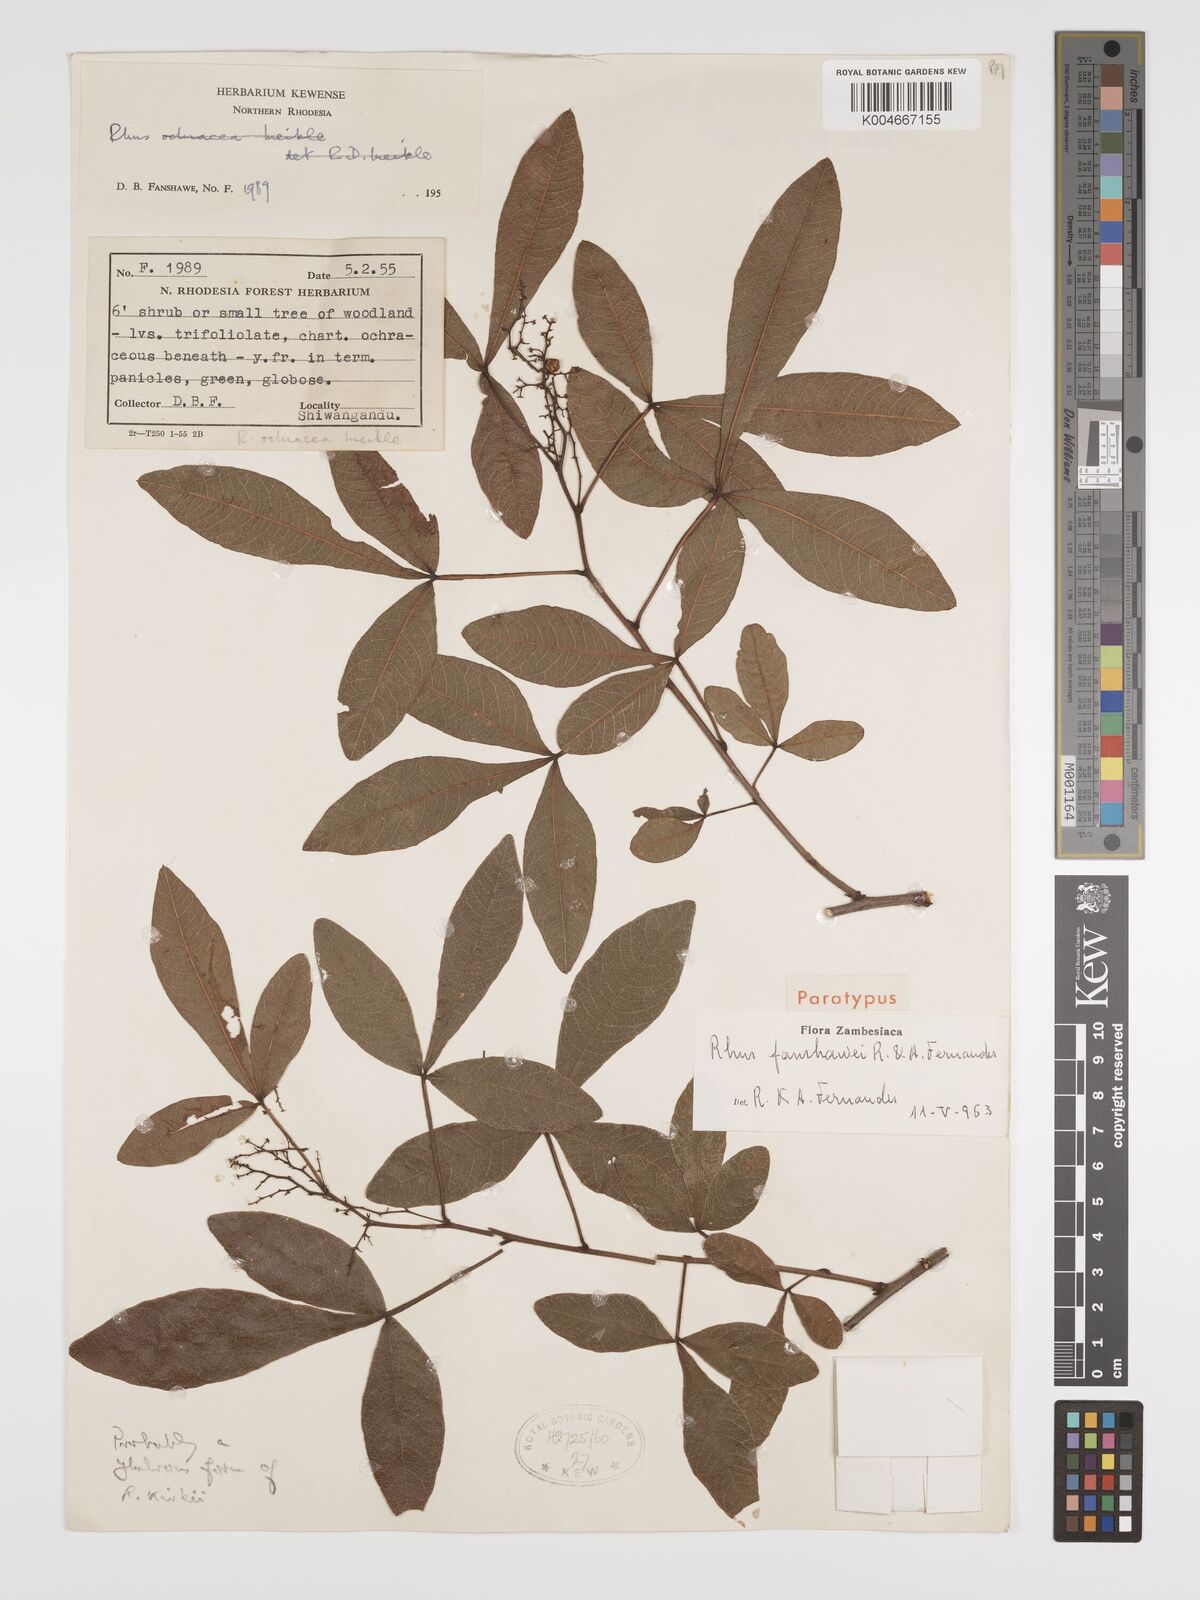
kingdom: Plantae
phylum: Tracheophyta
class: Magnoliopsida
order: Sapindales
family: Anacardiaceae
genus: Searsia
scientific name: Searsia magalismontana
